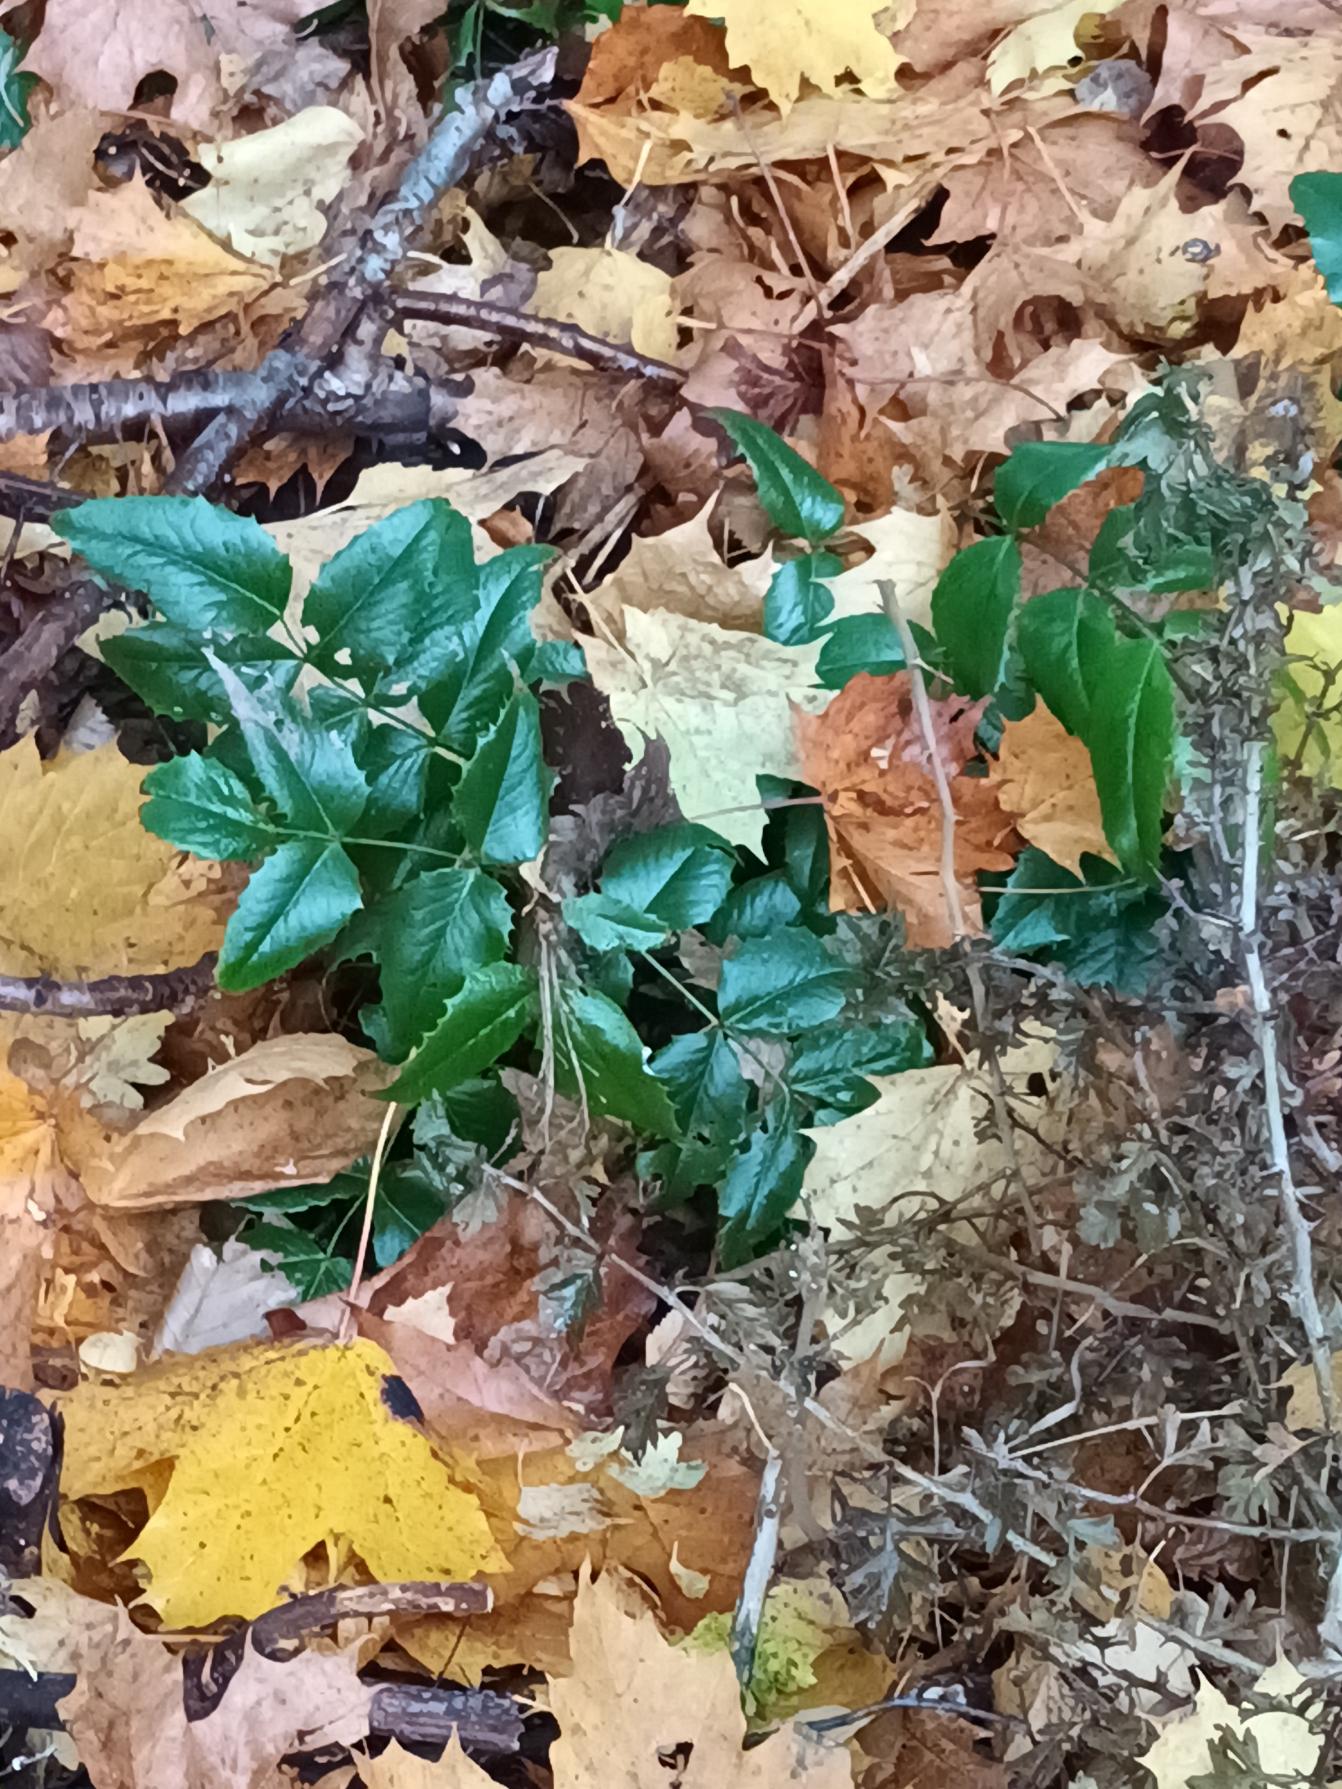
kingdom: Plantae
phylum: Tracheophyta
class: Magnoliopsida
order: Ranunculales
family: Berberidaceae
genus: Mahonia
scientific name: Mahonia aquifolium
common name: Almindelig mahonie
